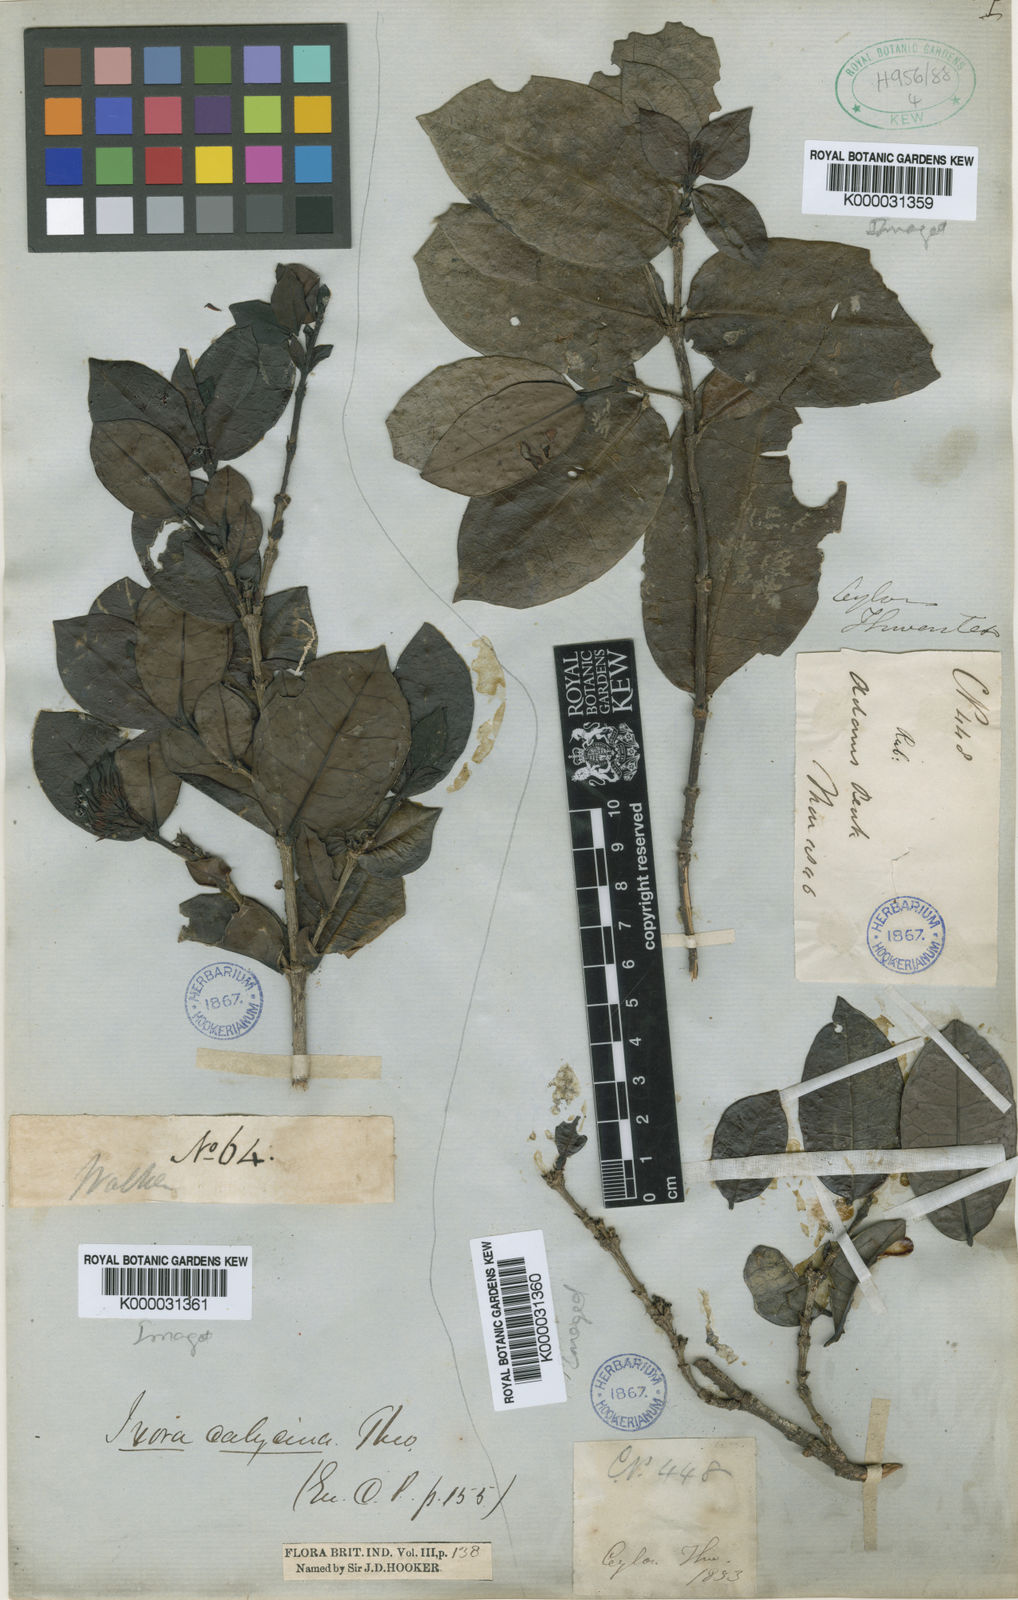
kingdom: Plantae
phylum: Tracheophyta
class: Magnoliopsida
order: Gentianales
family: Rubiaceae
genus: Ixora
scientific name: Ixora calycina
